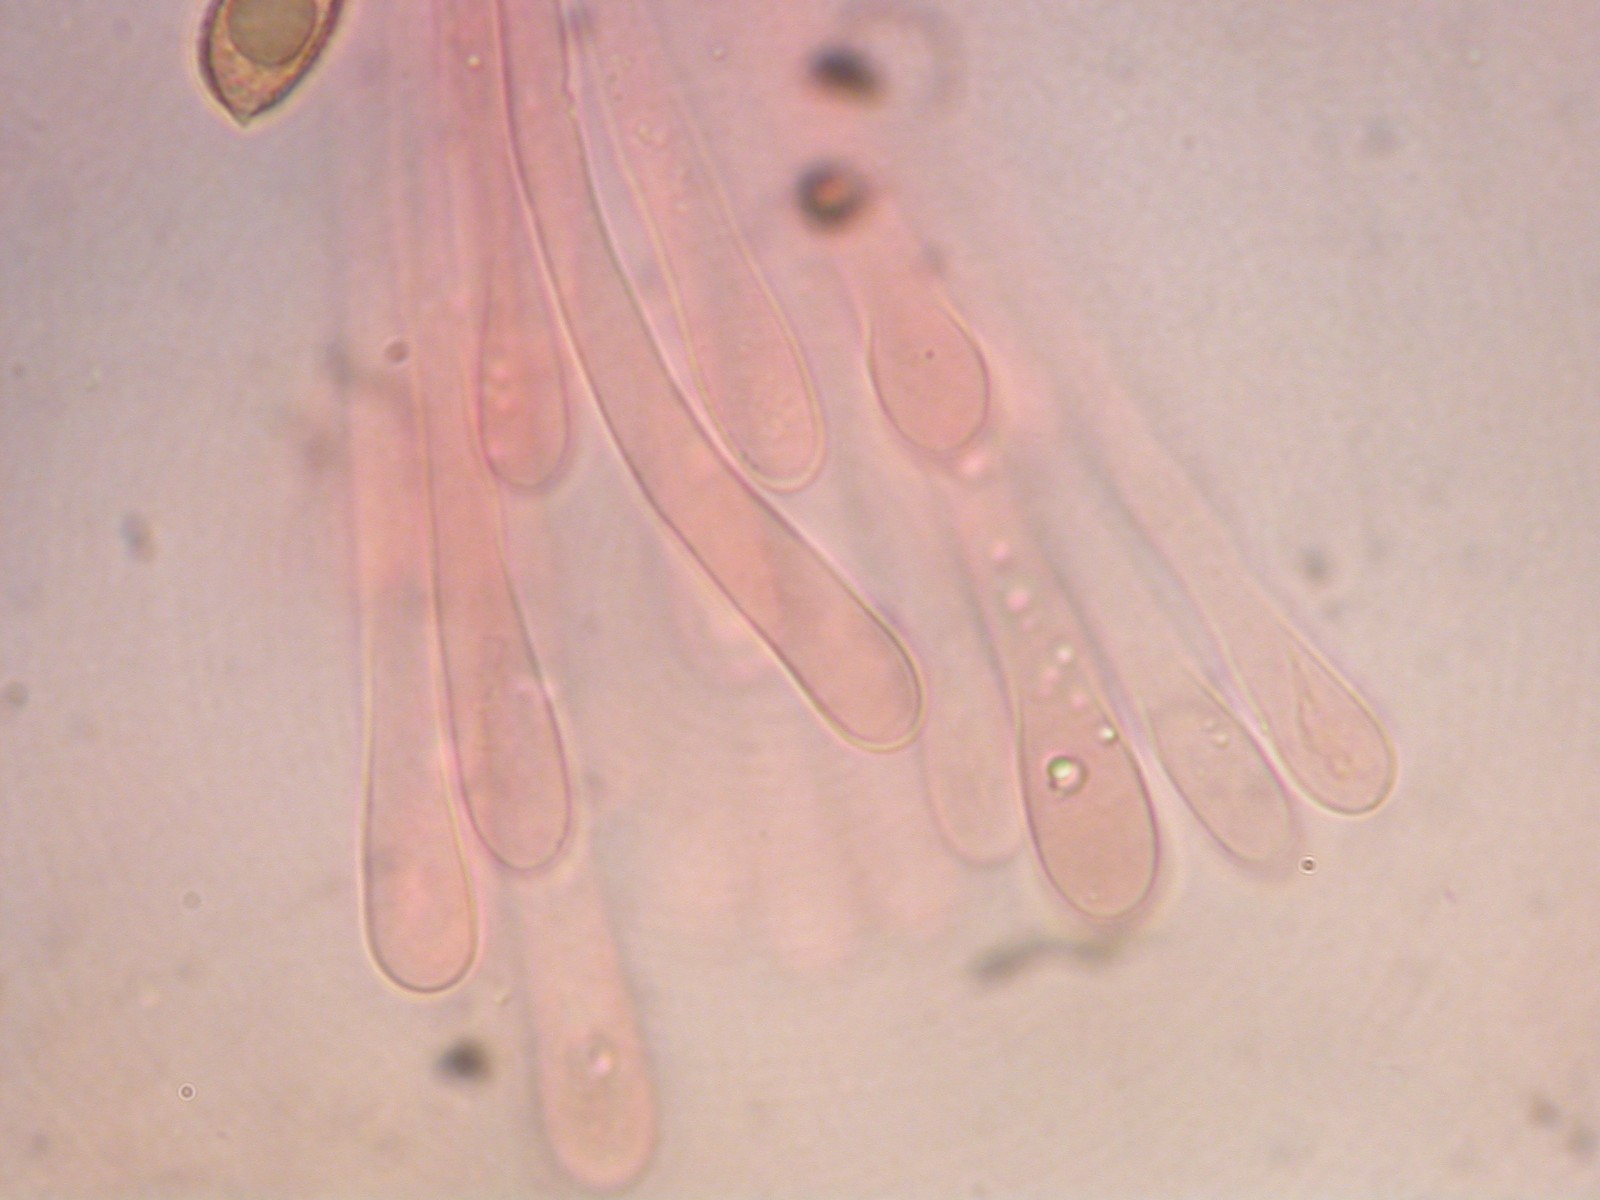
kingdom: Fungi
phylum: Basidiomycota
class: Agaricomycetes
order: Agaricales
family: Hymenogastraceae
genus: Hebeloma
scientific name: Hebeloma eburneum
